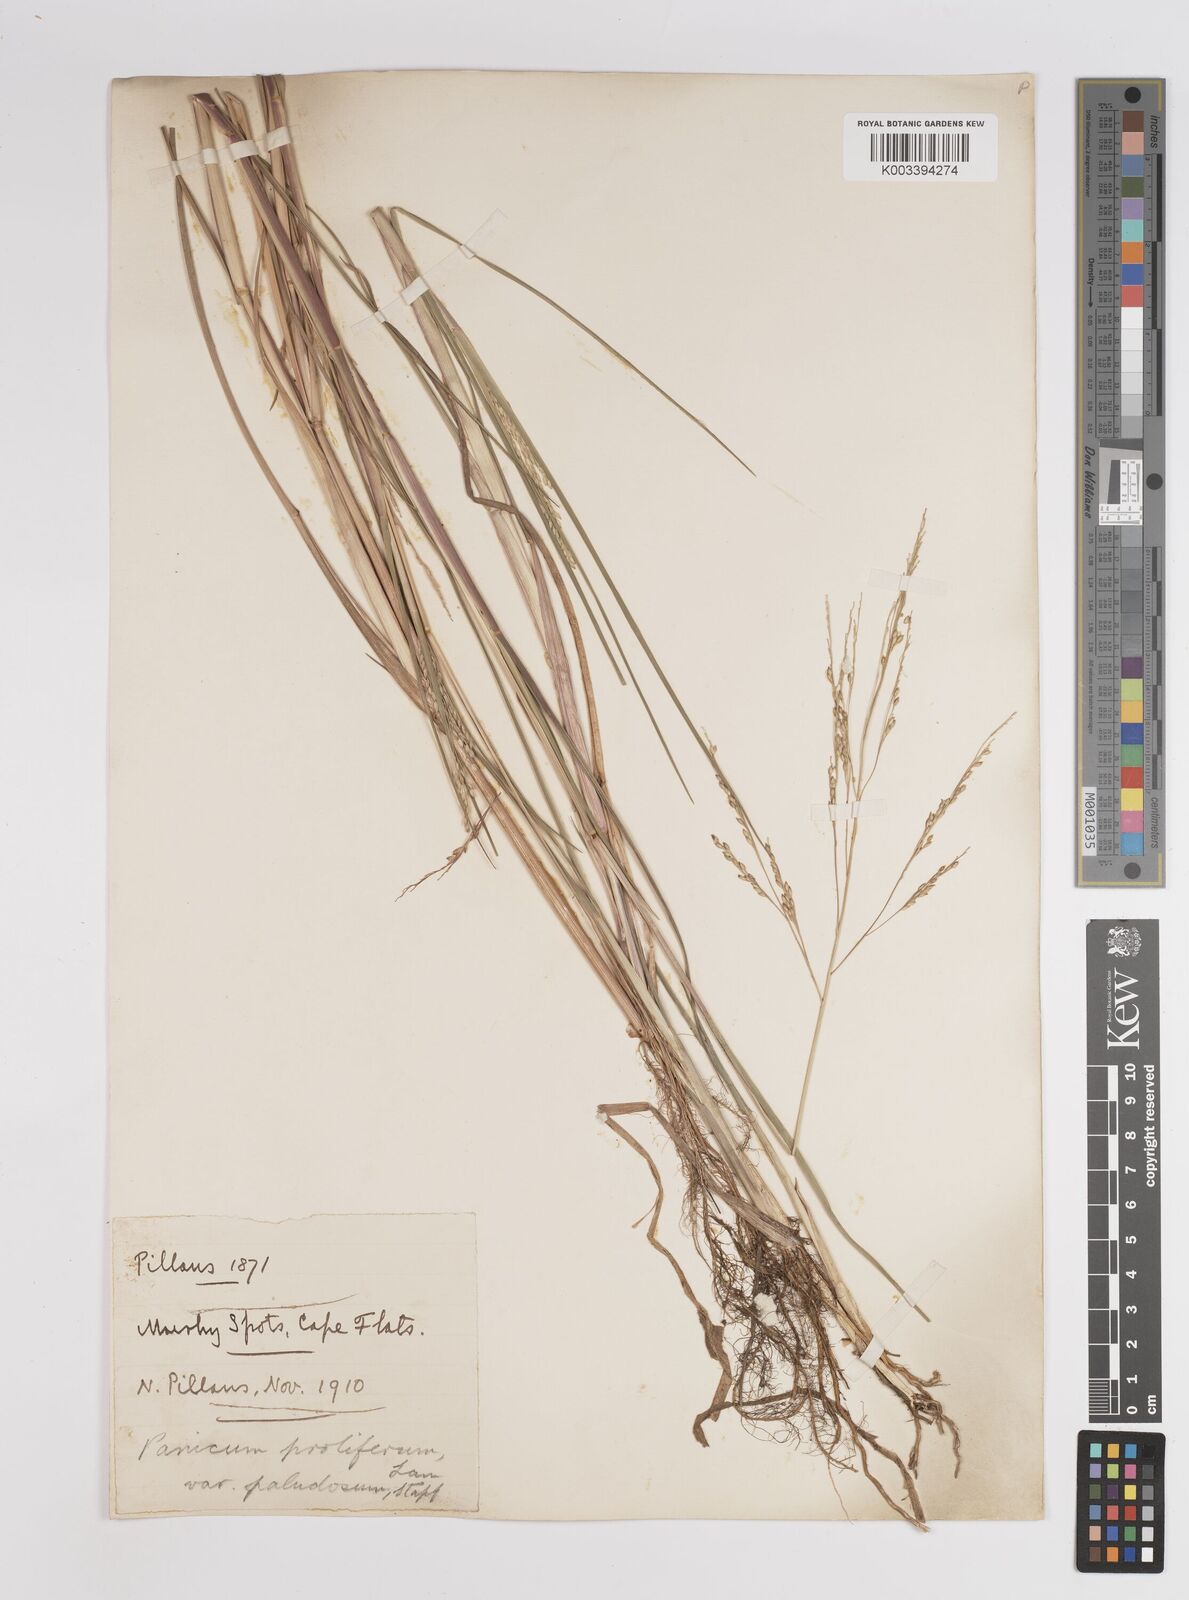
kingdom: Plantae
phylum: Tracheophyta
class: Liliopsida
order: Poales
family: Poaceae
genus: Panicum
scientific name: Panicum subalbidum
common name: Elbow buffalo grass
